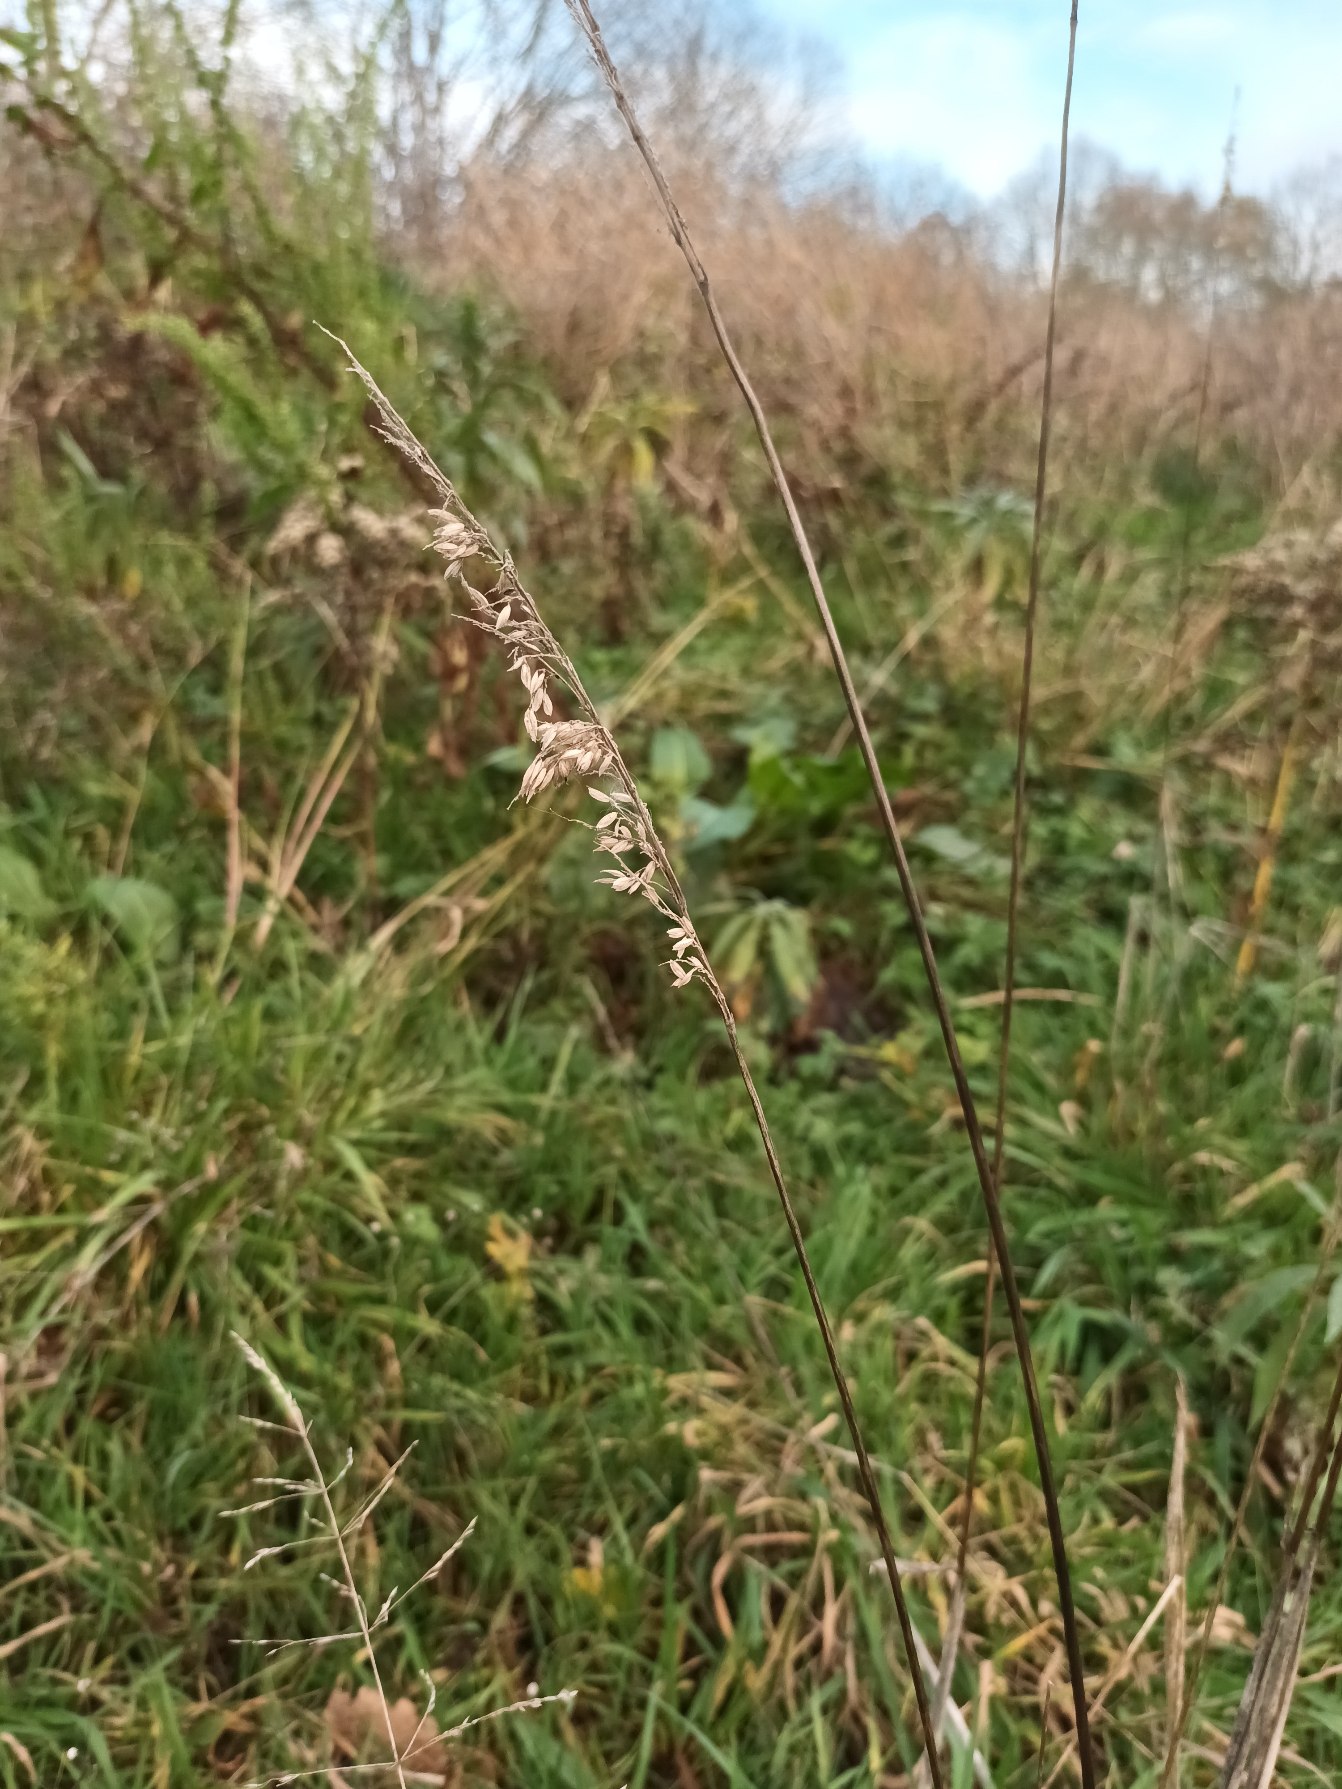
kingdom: Plantae
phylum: Tracheophyta
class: Liliopsida
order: Poales
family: Poaceae
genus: Holcus
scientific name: Holcus lanatus
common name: Fløjlsgræs
